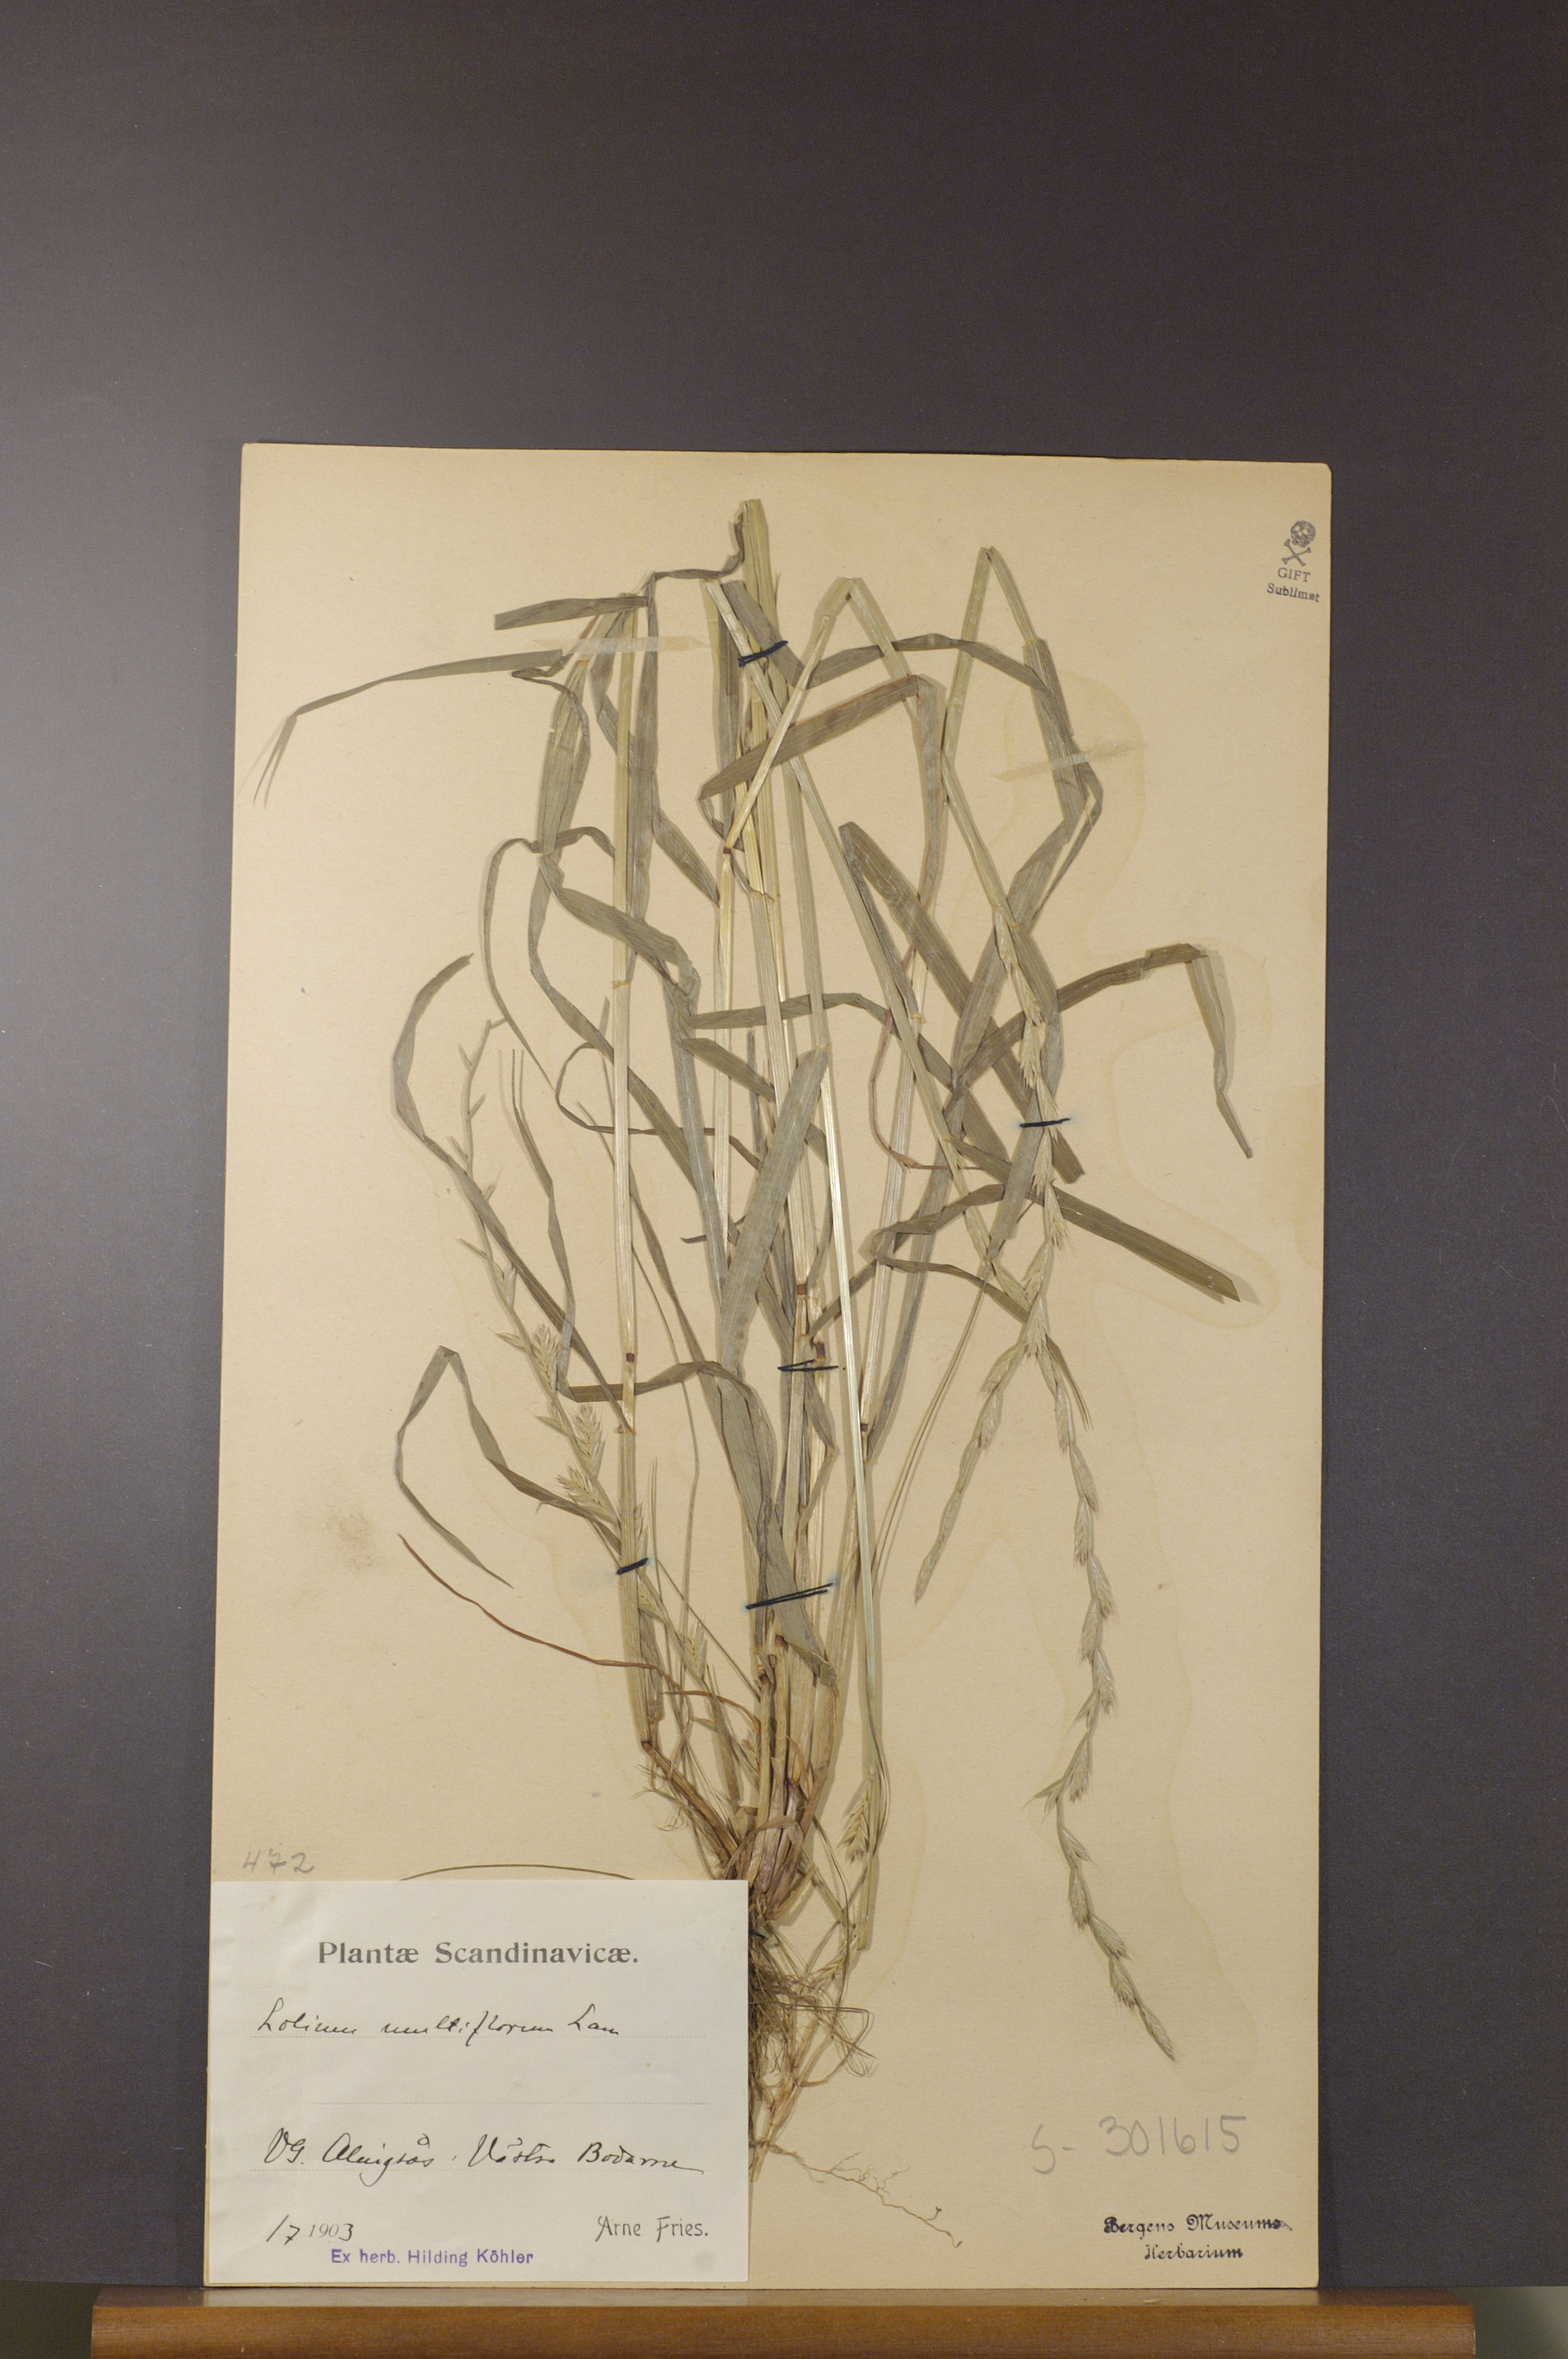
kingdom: Plantae
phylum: Tracheophyta
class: Liliopsida
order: Poales
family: Poaceae
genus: Lolium
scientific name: Lolium multiflorum
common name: Annual ryegrass
